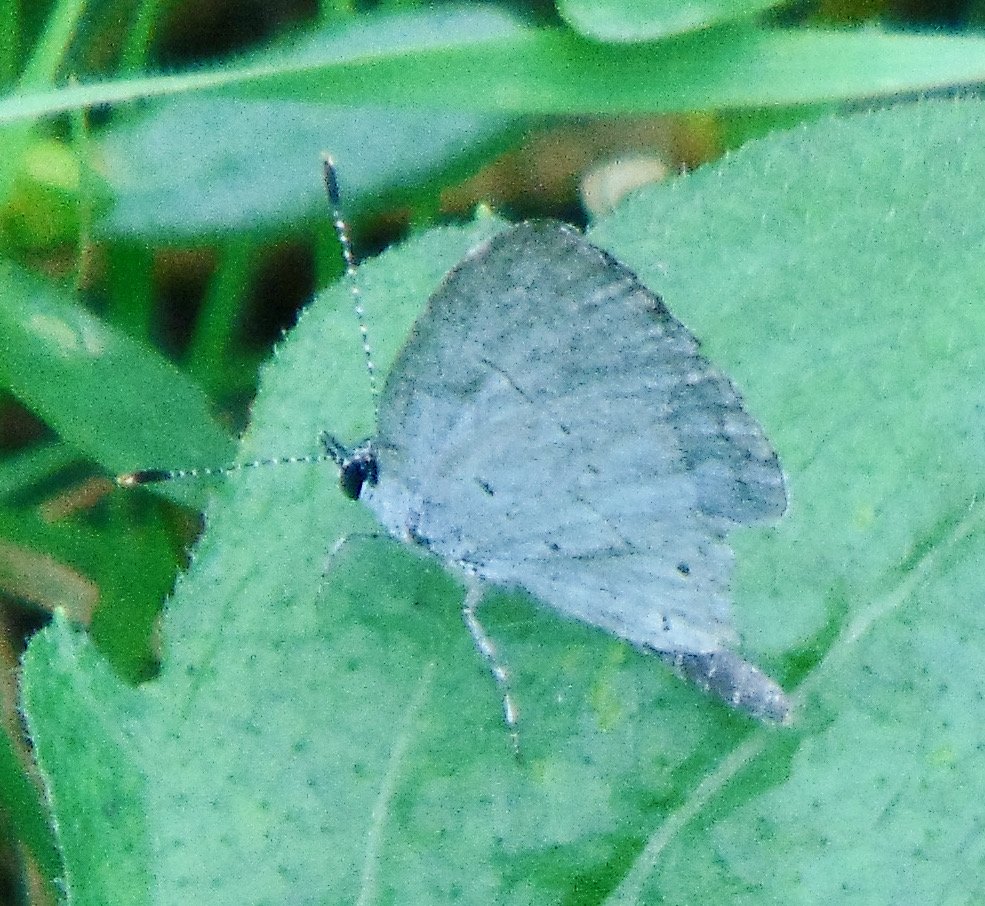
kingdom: Animalia
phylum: Arthropoda
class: Insecta
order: Lepidoptera
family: Lycaenidae
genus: Cyaniris
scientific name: Cyaniris neglecta
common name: Summer Azure
